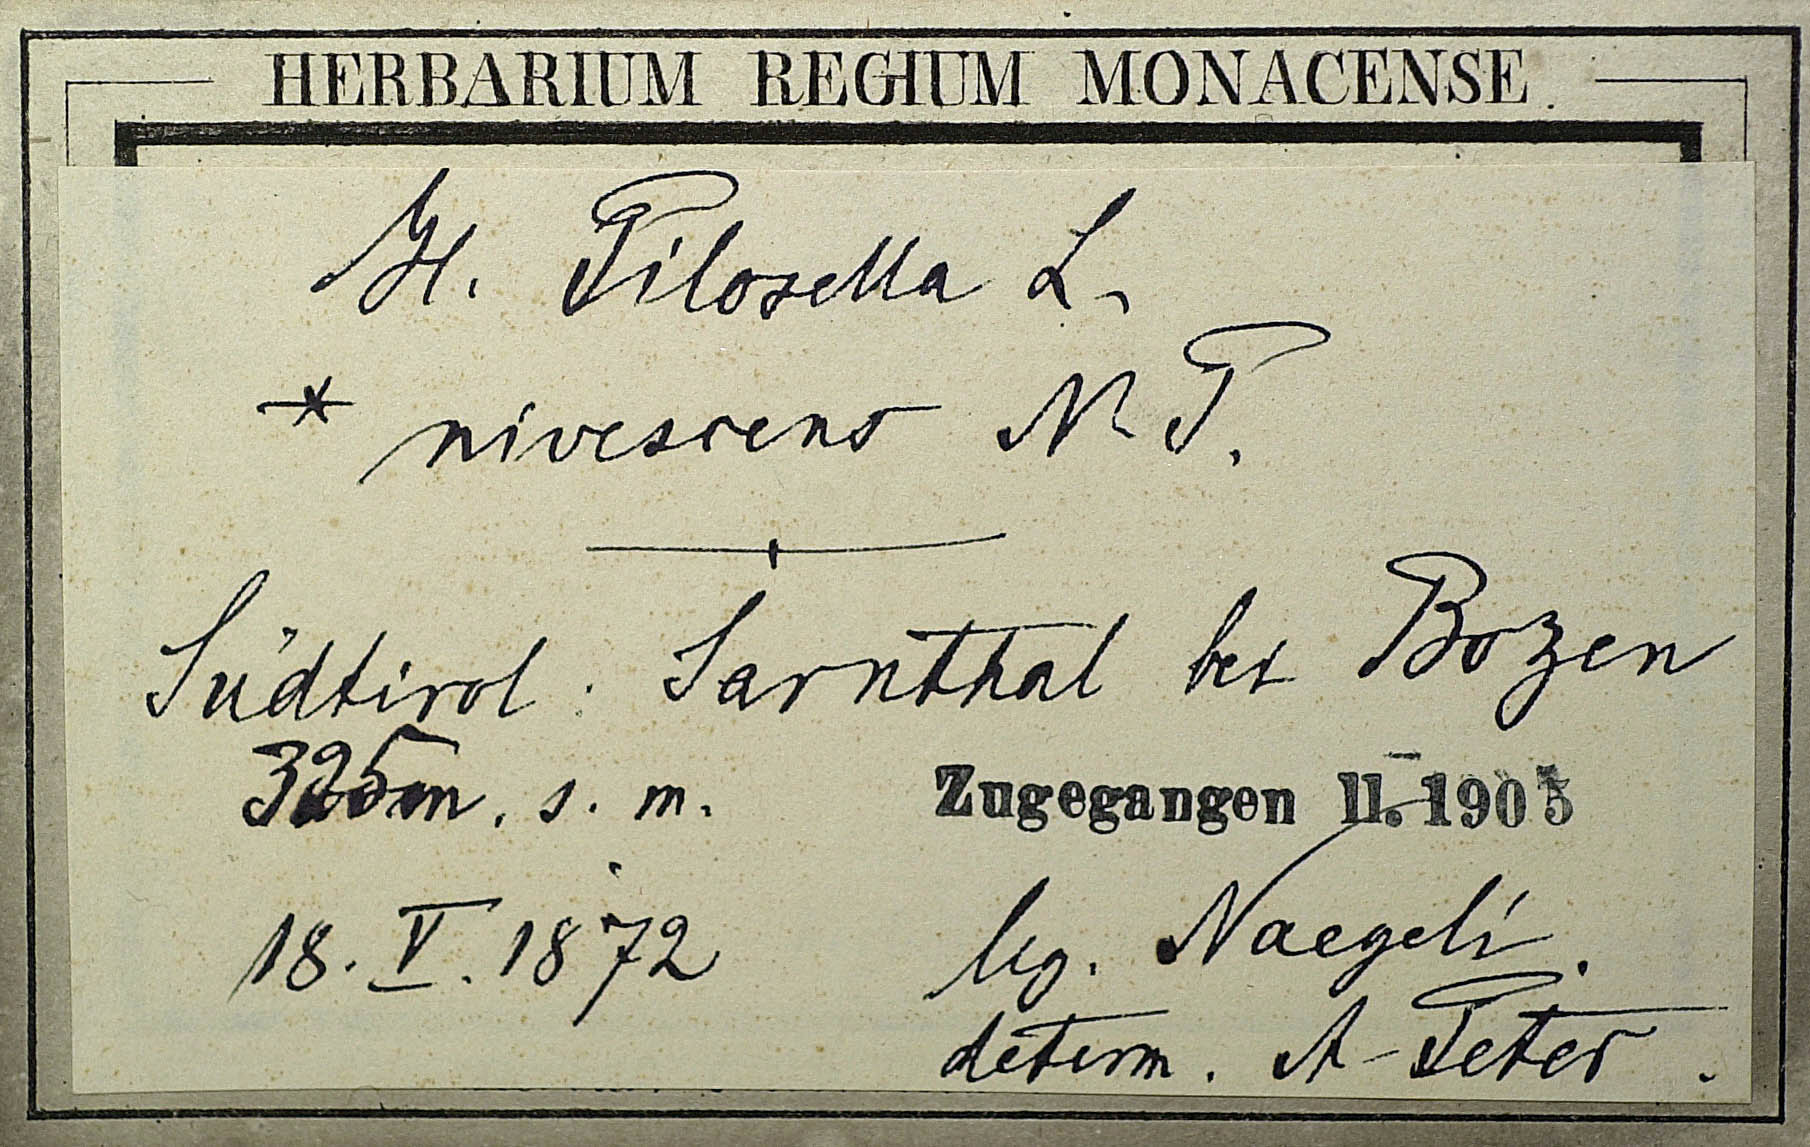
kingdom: Plantae
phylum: Tracheophyta
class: Magnoliopsida
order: Asterales
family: Asteraceae
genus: Pilosella
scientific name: Pilosella officinarum
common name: Mouse-ear hawkweed
